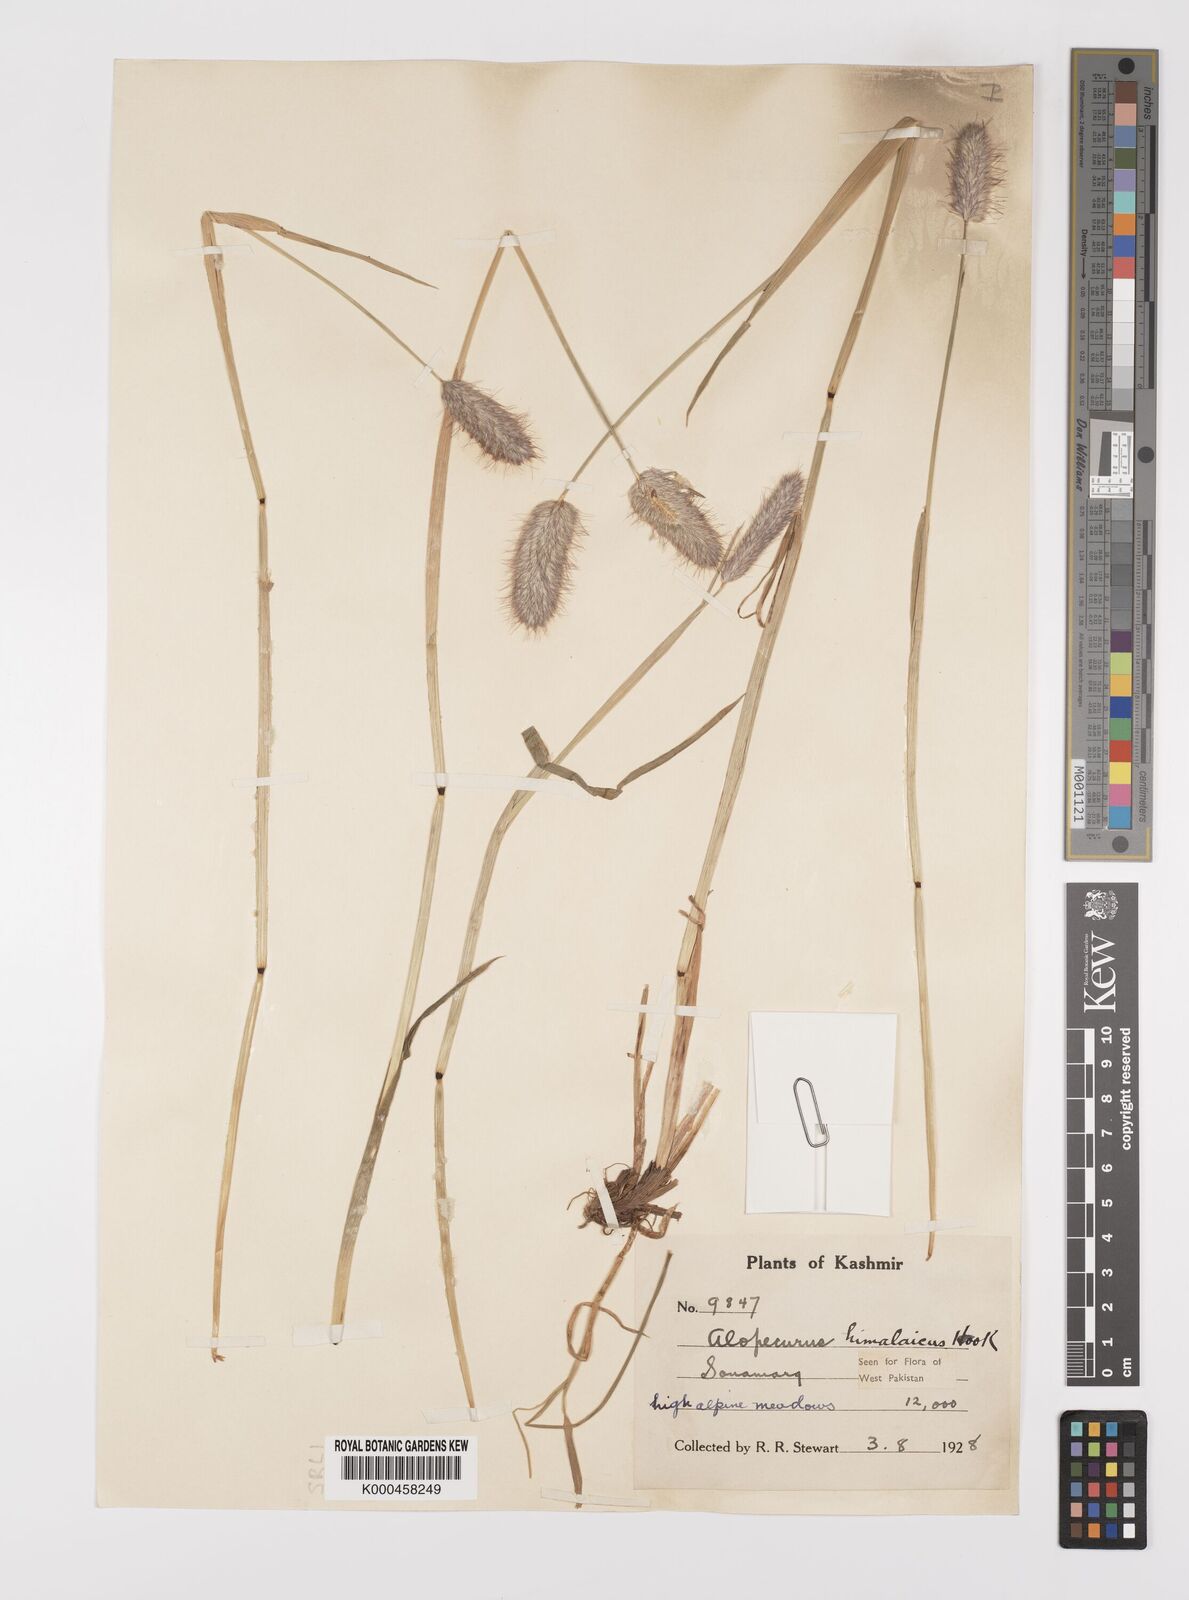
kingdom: Plantae
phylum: Tracheophyta
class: Liliopsida
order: Poales
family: Poaceae
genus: Alopecurus
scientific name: Alopecurus himalaicus
